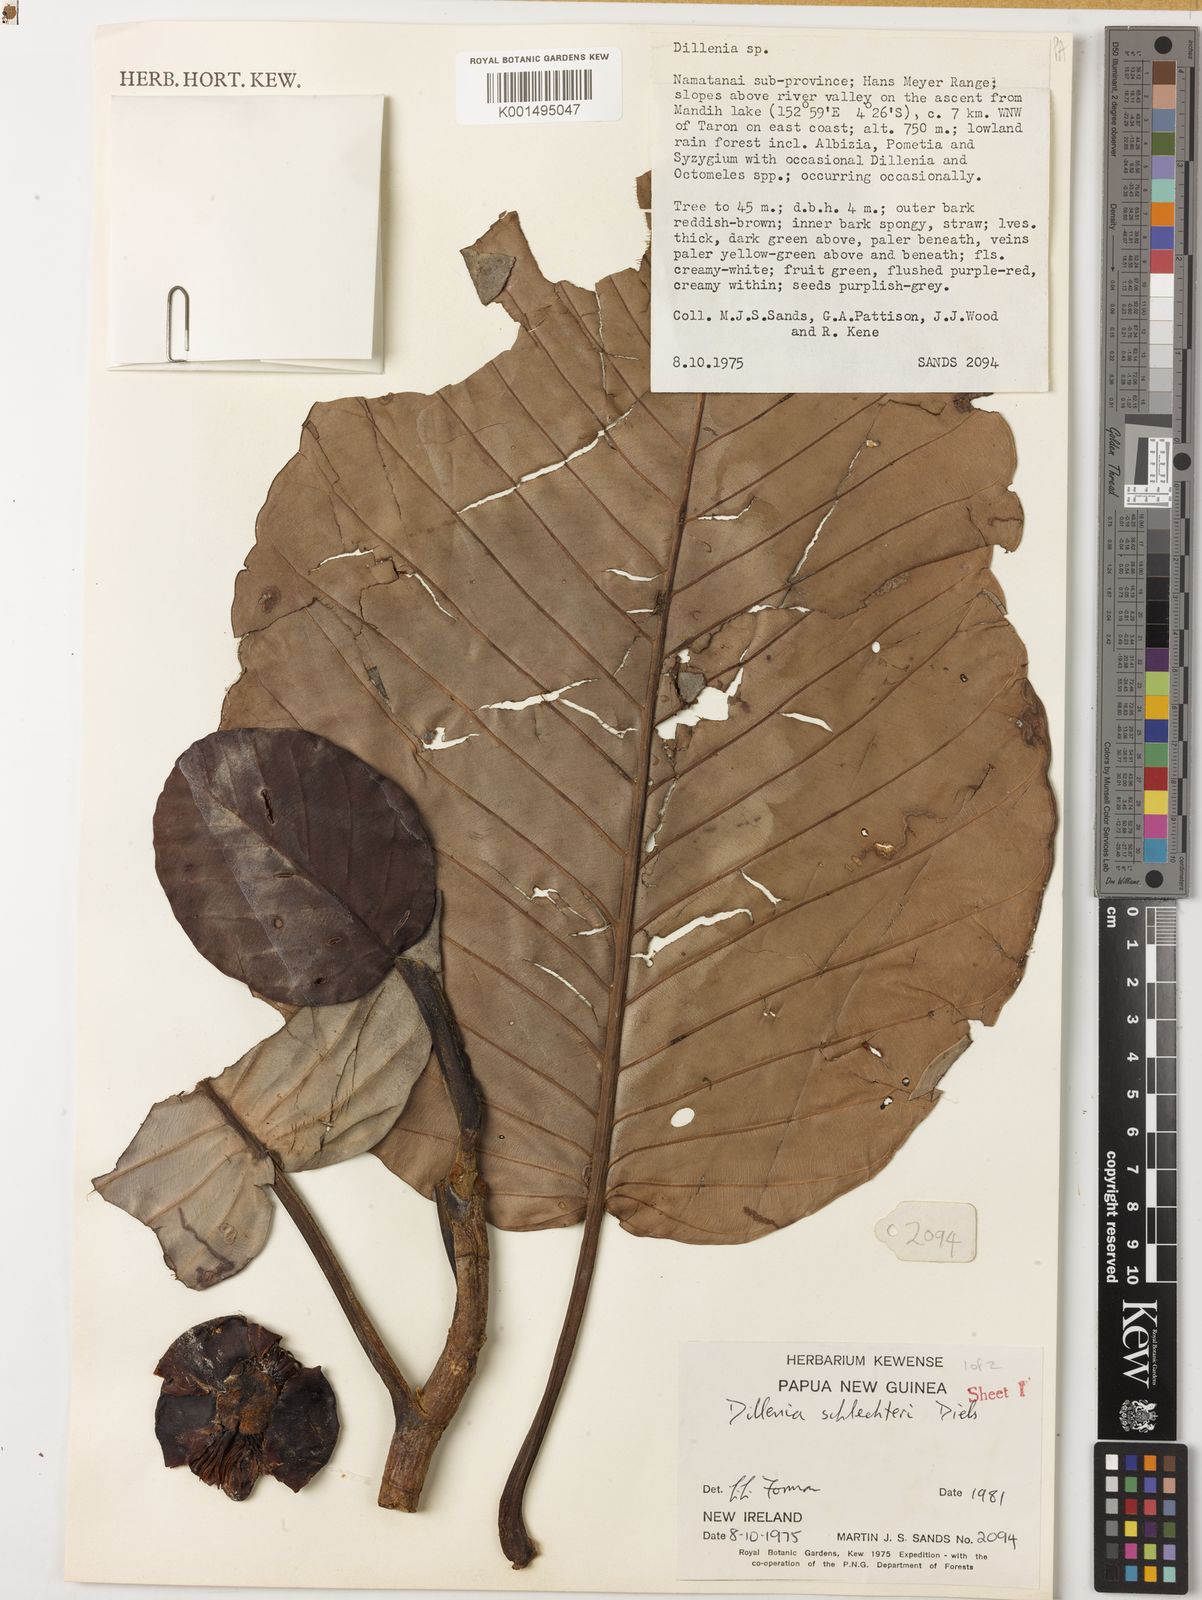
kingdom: Plantae
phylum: Tracheophyta
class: Magnoliopsida
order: Dilleniales
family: Dilleniaceae
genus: Dillenia
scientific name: Dillenia schlechteri
